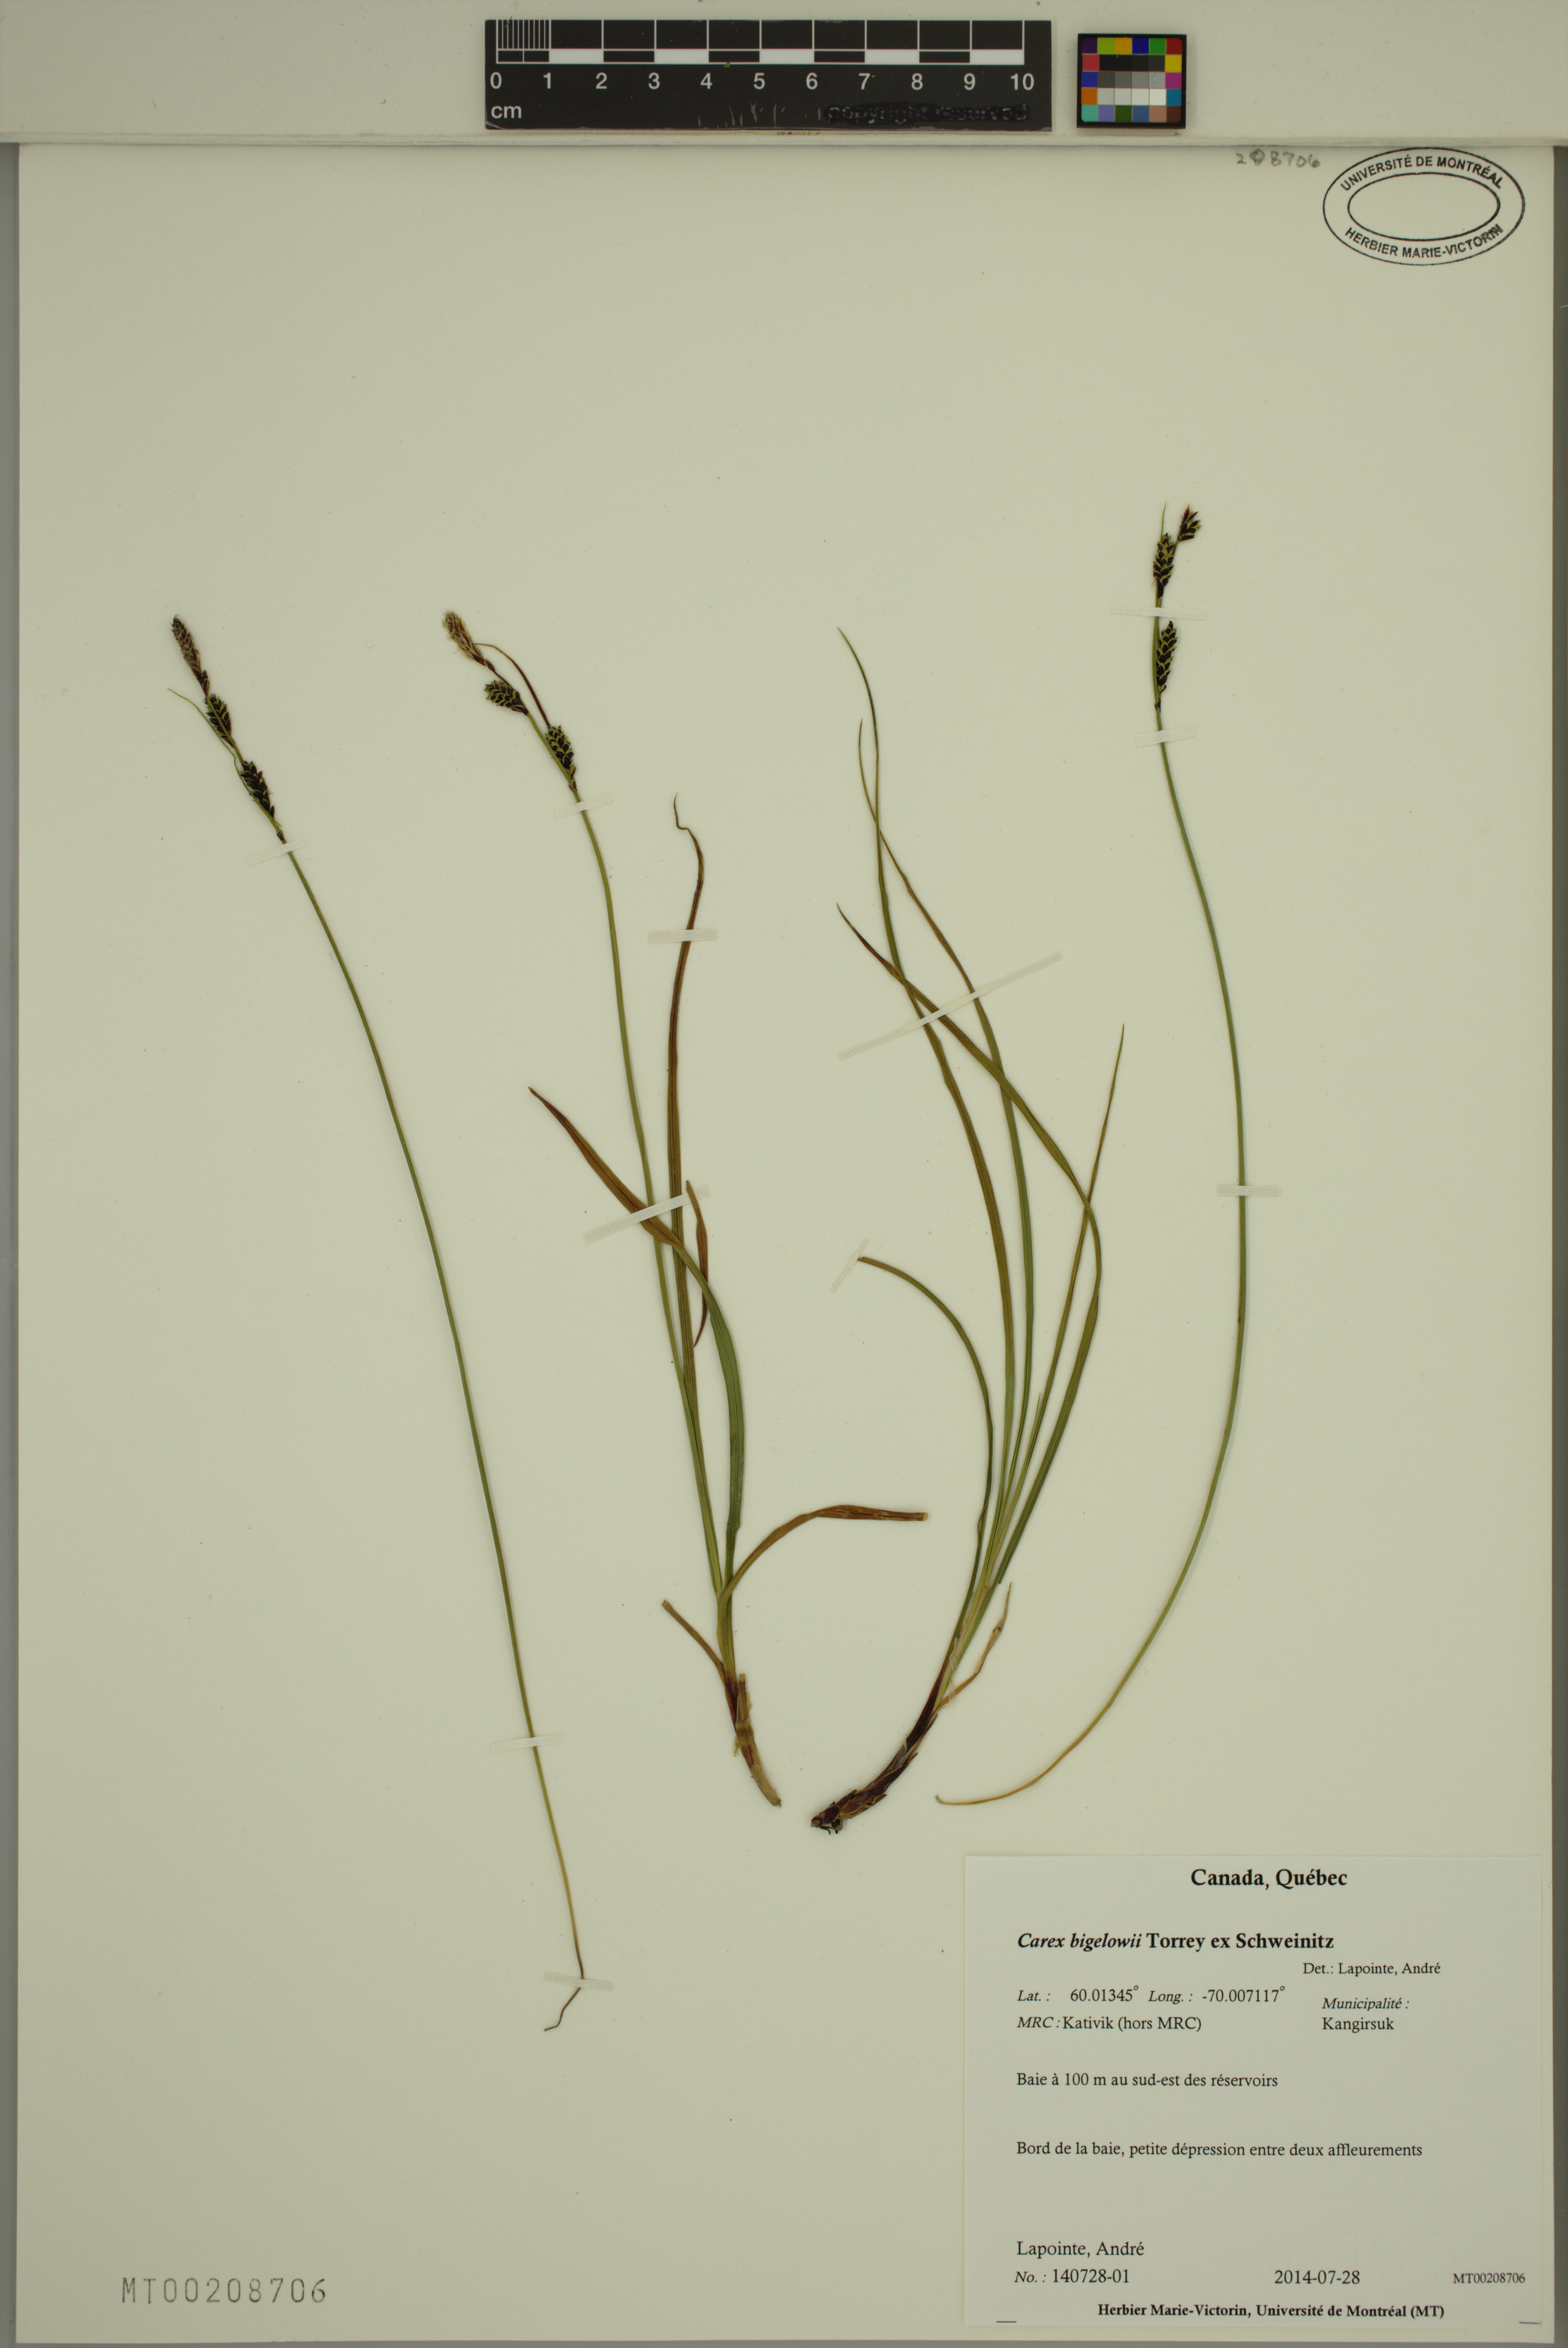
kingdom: Plantae
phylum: Tracheophyta
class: Liliopsida
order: Poales
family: Cyperaceae
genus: Carex
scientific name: Carex bigelowii
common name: Stiff sedge
